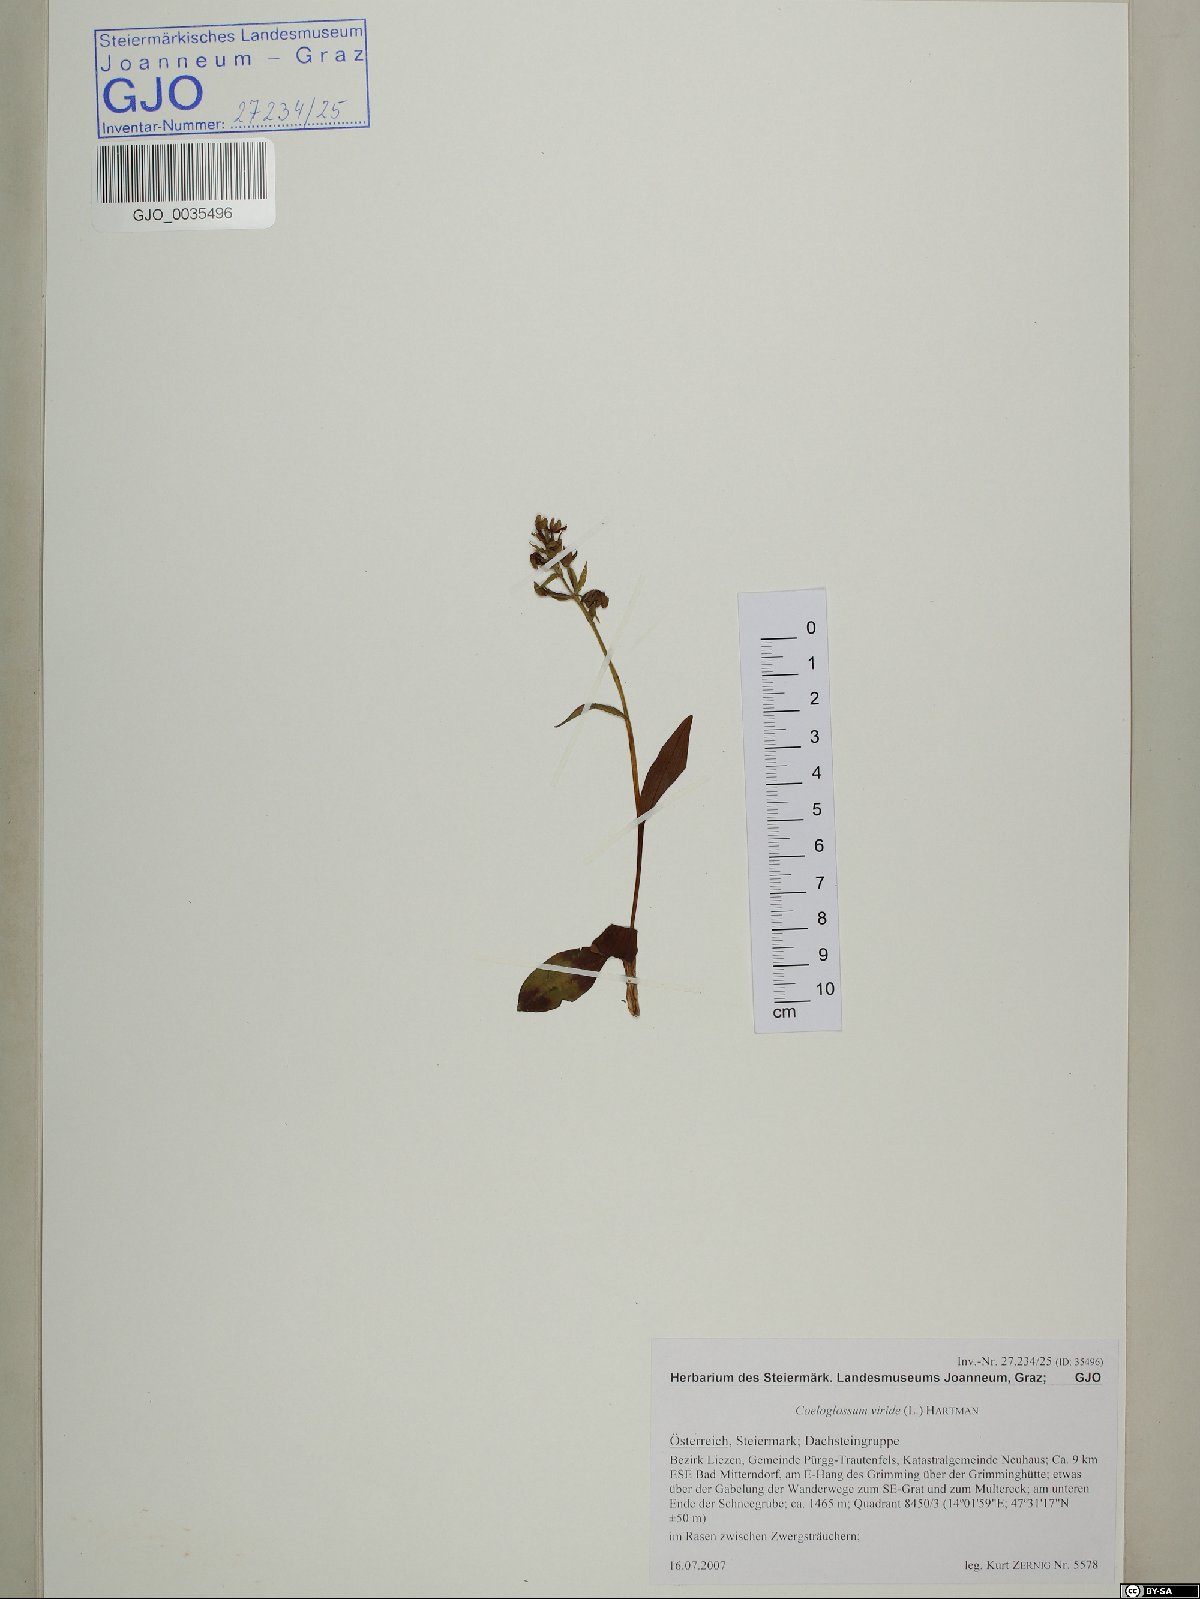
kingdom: Plantae
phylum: Tracheophyta
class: Liliopsida
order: Asparagales
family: Orchidaceae
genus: Dactylorhiza
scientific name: Dactylorhiza viridis
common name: Longbract frog orchid
